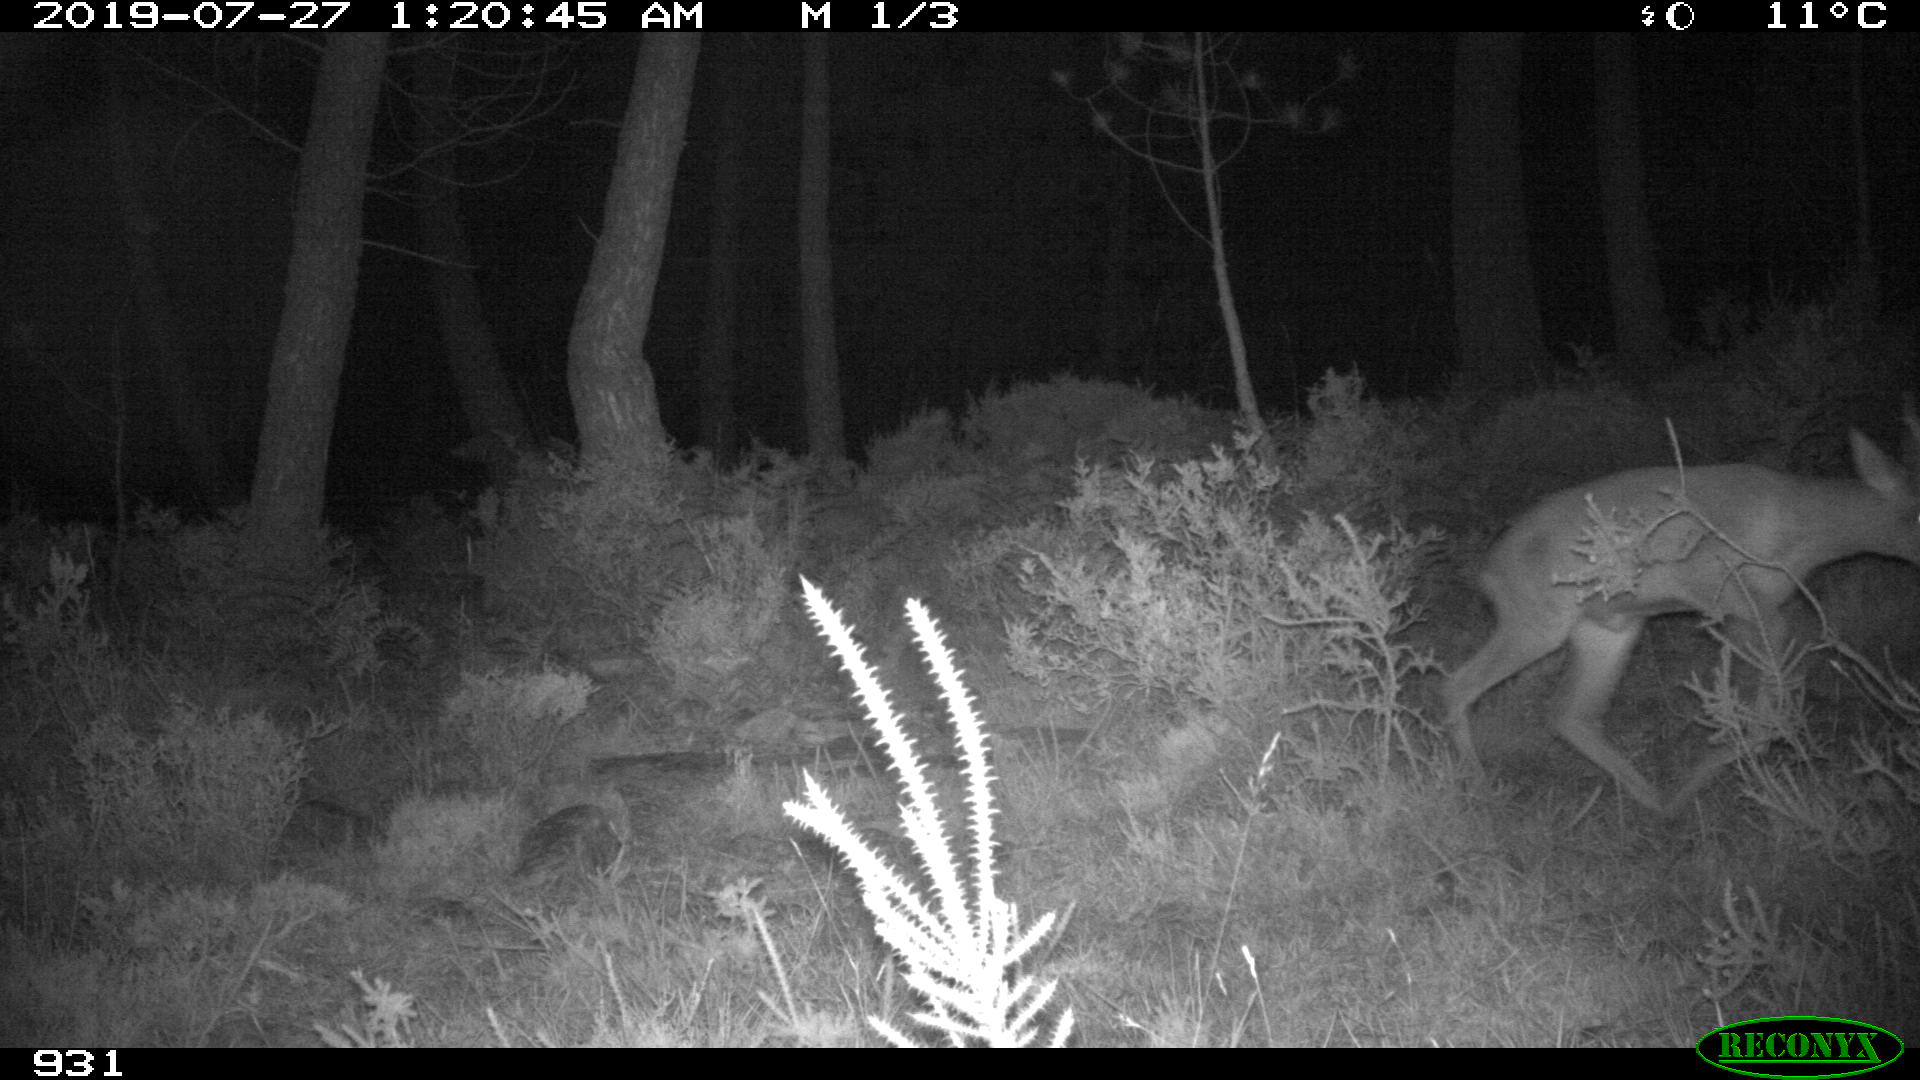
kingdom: Animalia
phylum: Chordata
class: Mammalia
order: Artiodactyla
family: Cervidae
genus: Capreolus
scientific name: Capreolus capreolus
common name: Western roe deer
